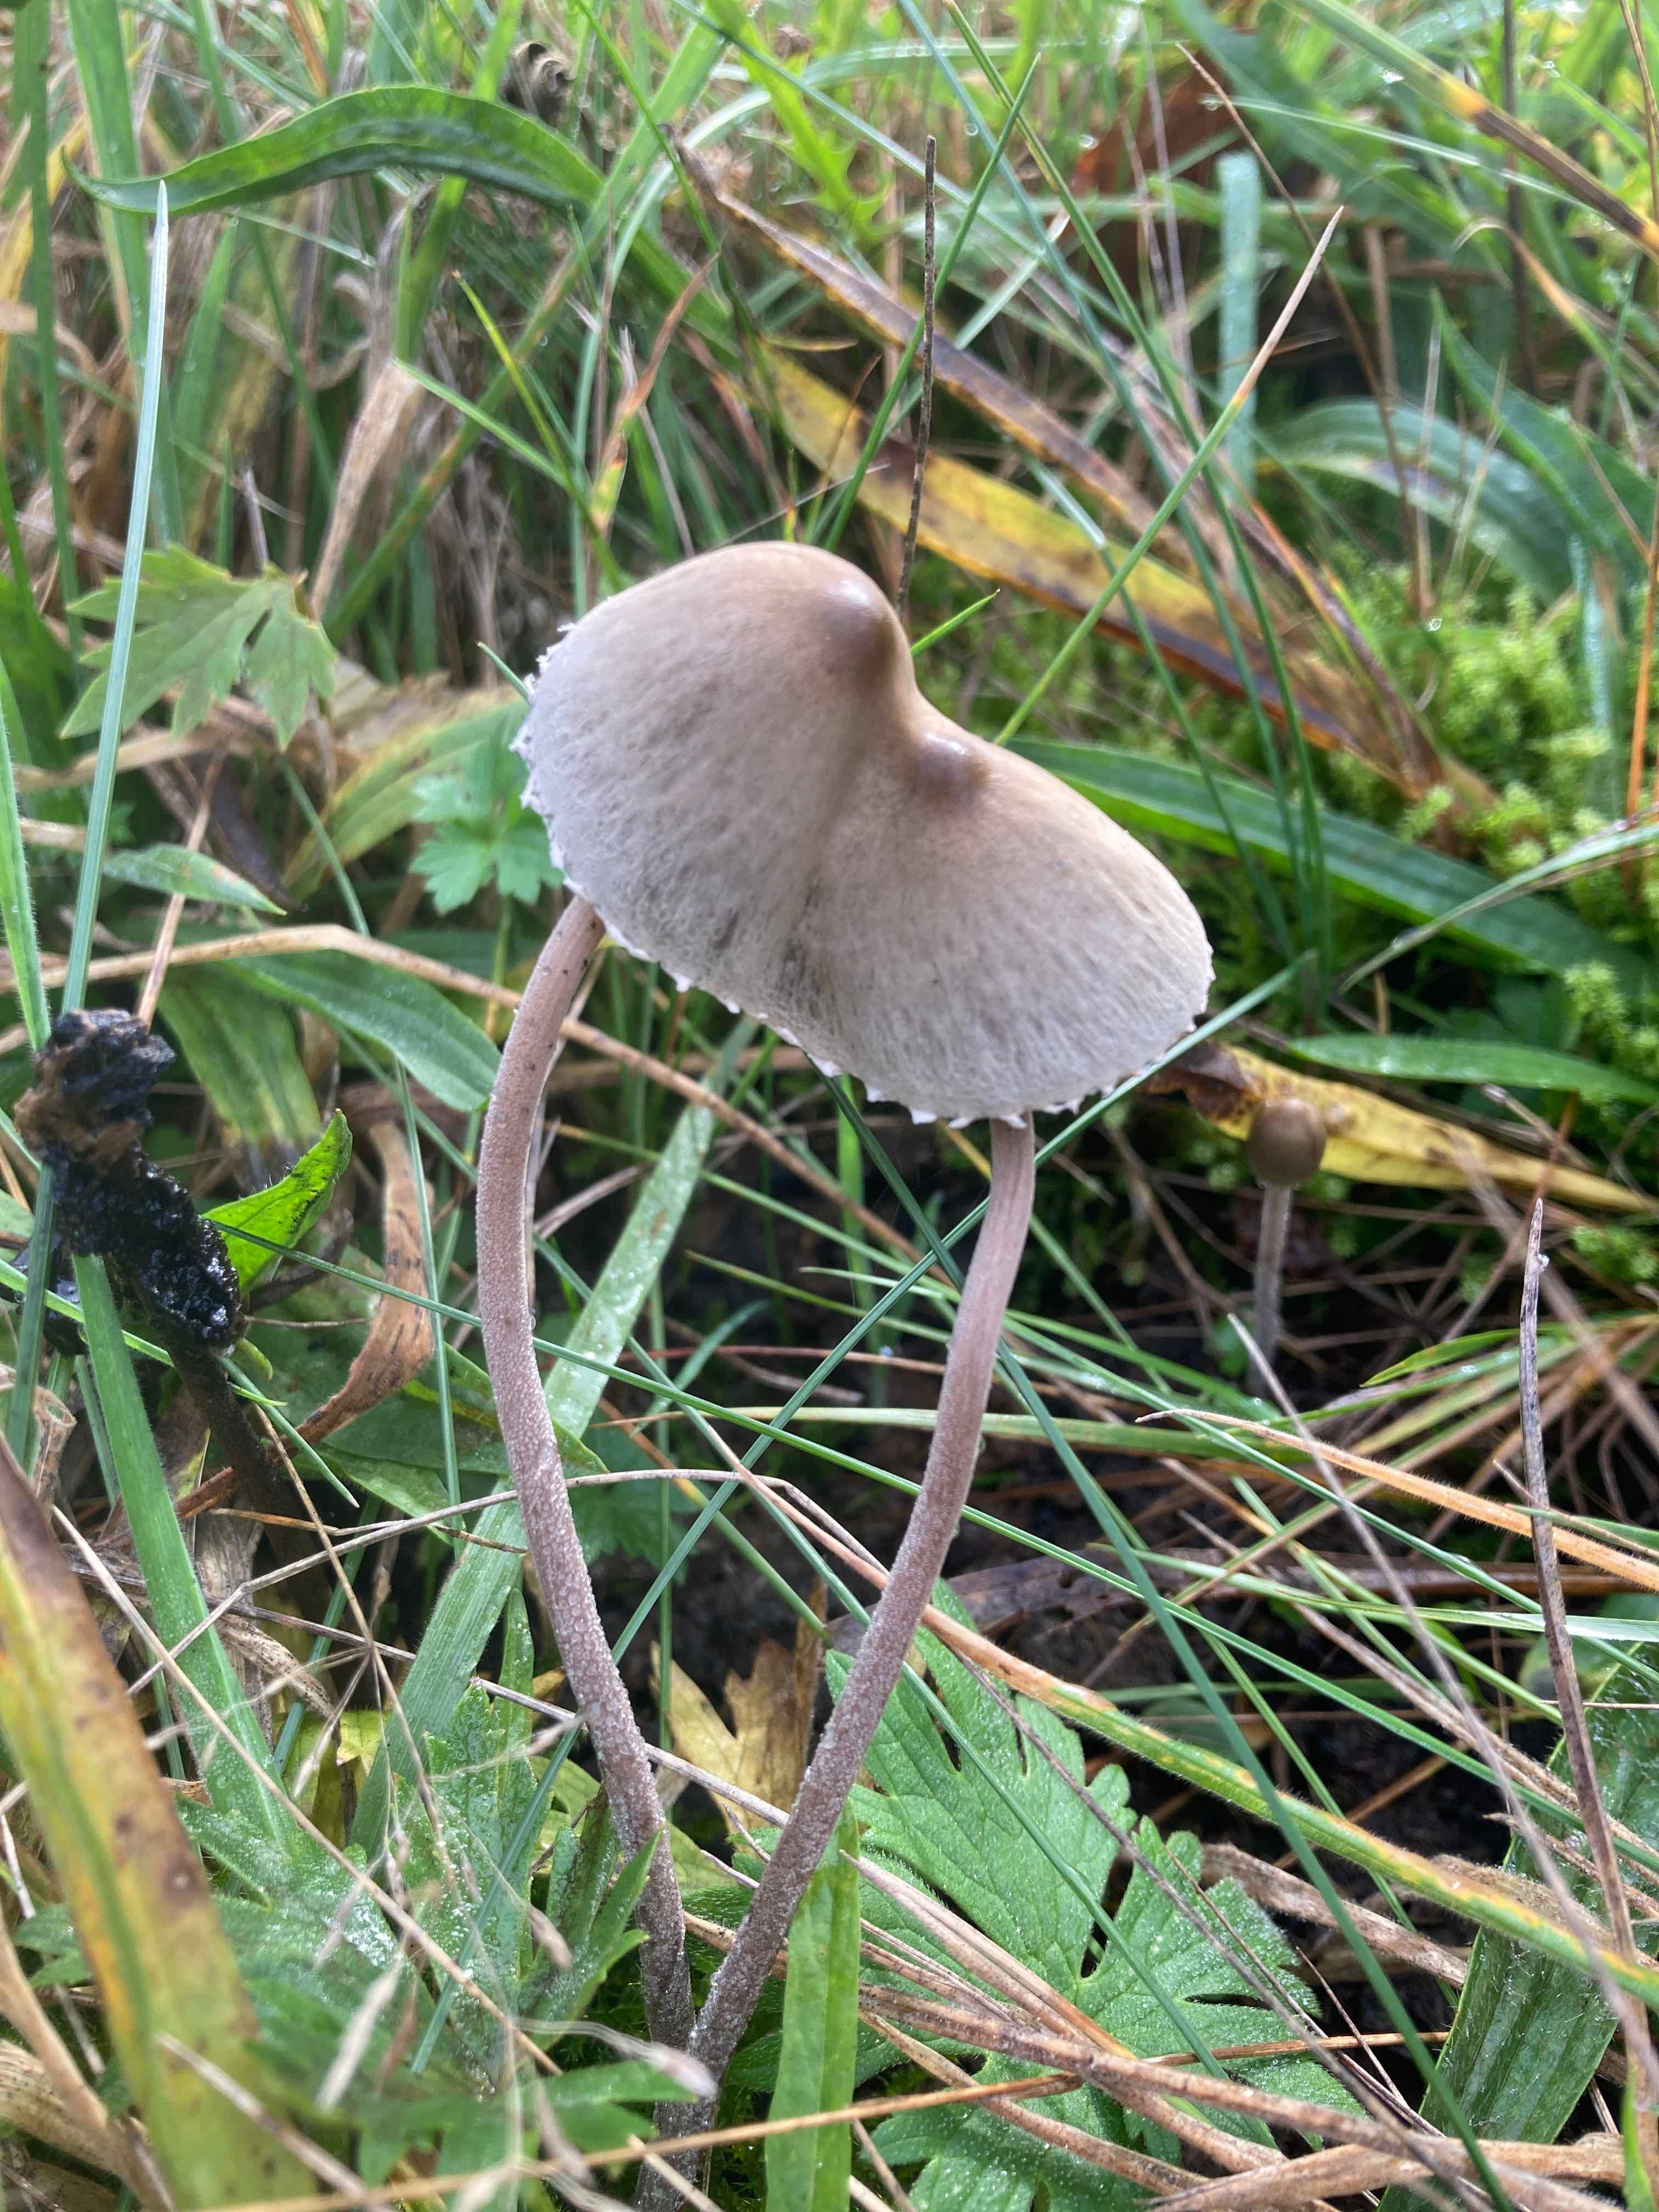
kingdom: Fungi
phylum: Basidiomycota
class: Agaricomycetes
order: Agaricales
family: Bolbitiaceae
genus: Panaeolus
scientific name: Panaeolus papilionaceus
